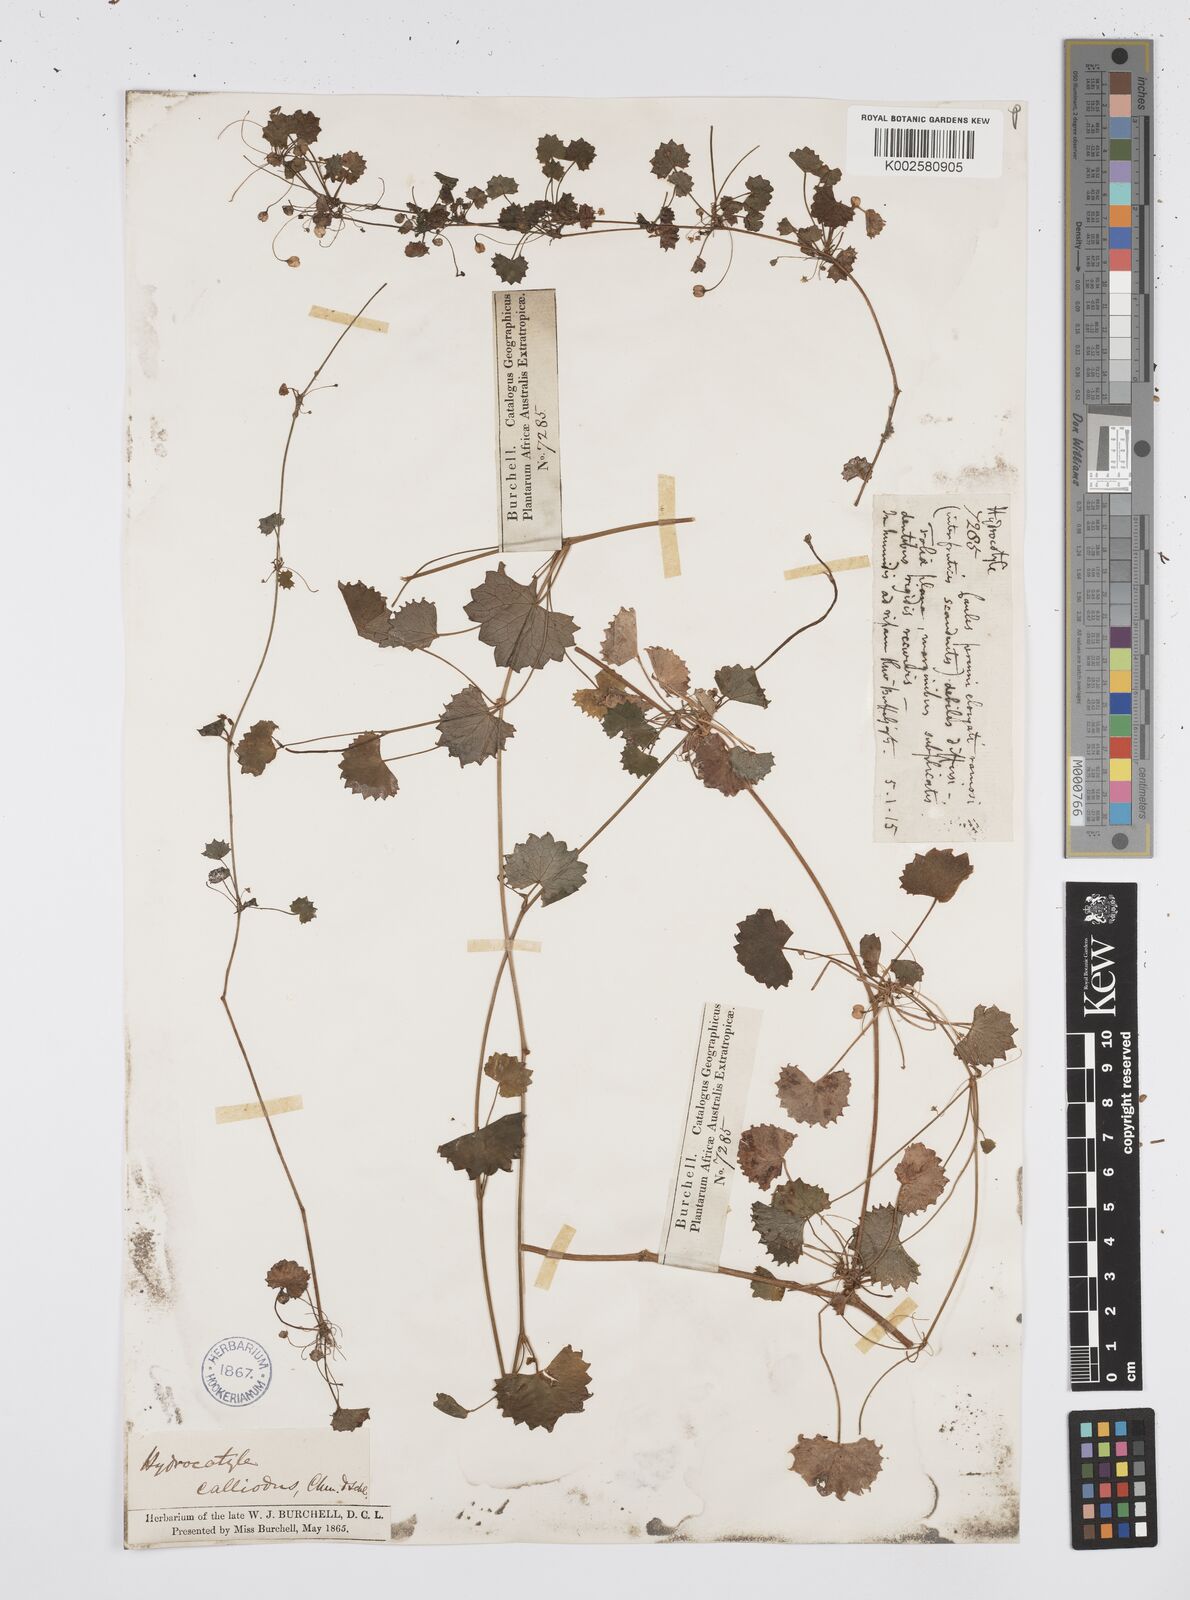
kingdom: Plantae
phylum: Tracheophyta
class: Magnoliopsida
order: Apiales
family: Apiaceae
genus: Centella
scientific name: Centella
